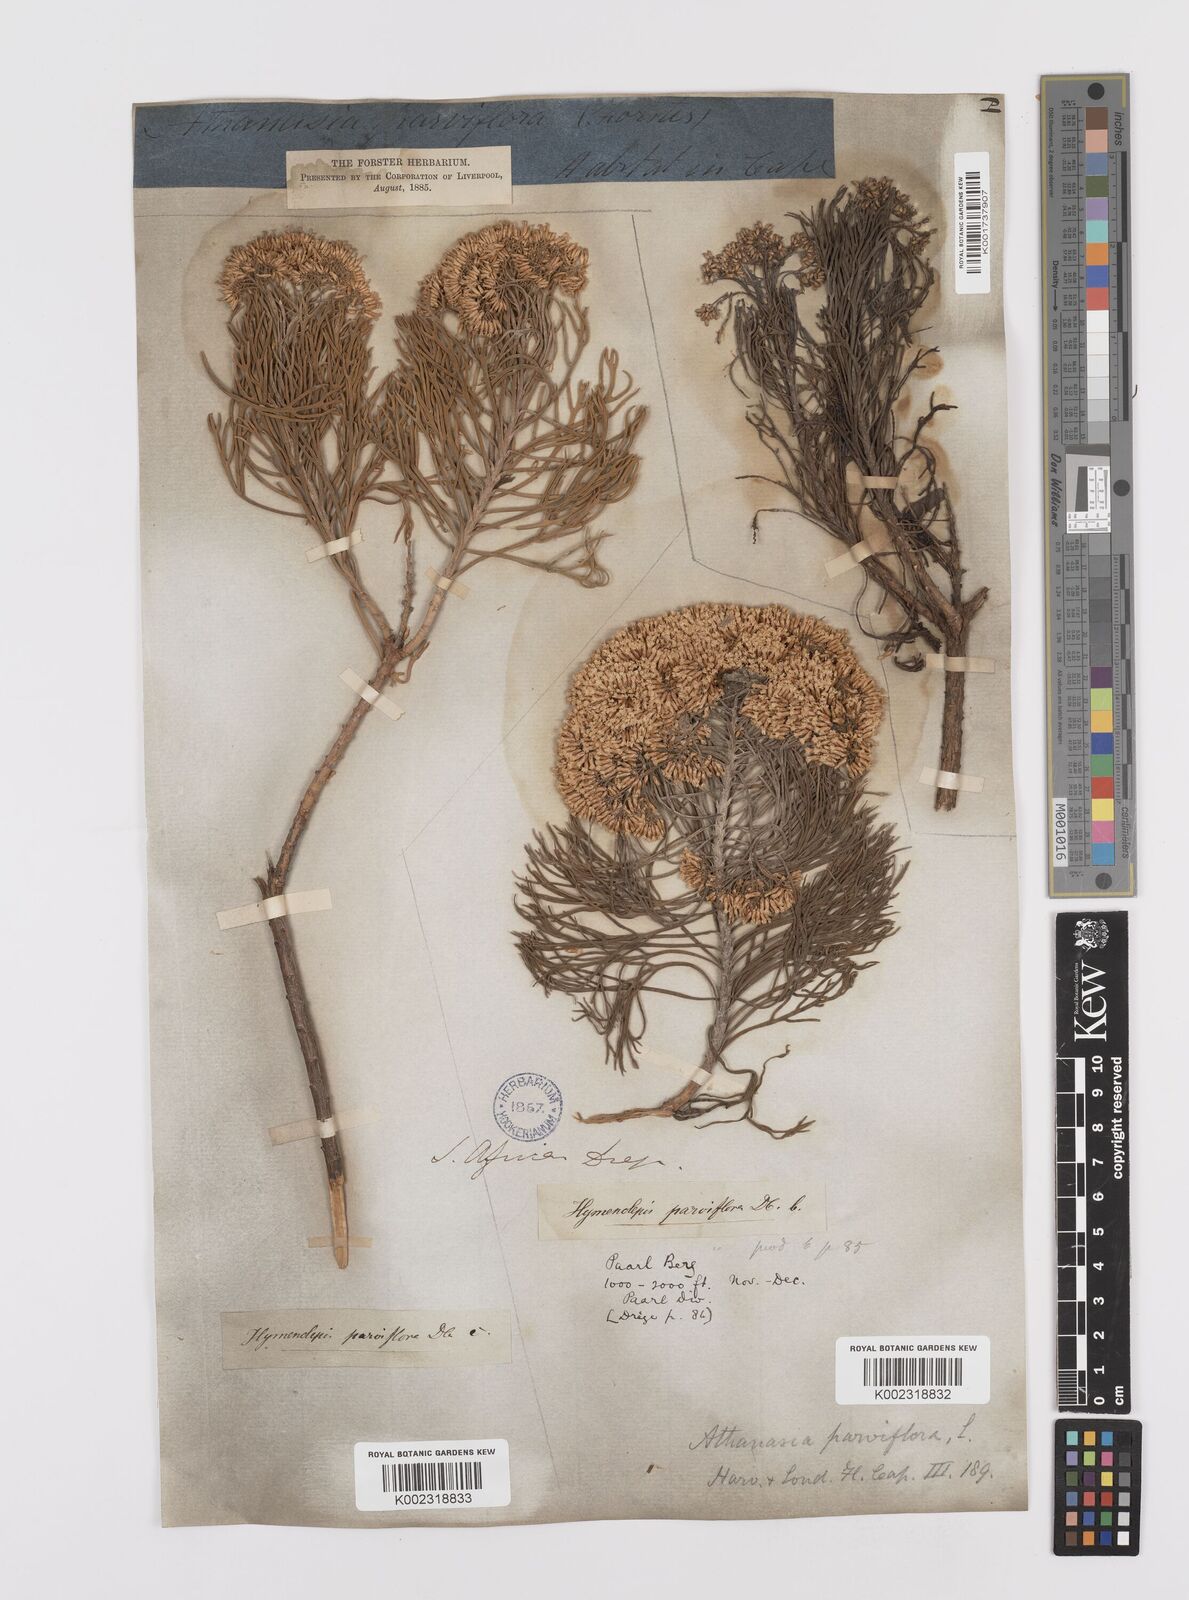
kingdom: Plantae
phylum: Tracheophyta
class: Magnoliopsida
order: Asterales
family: Asteraceae
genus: Hymenolepis
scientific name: Hymenolepis crithmifolia
